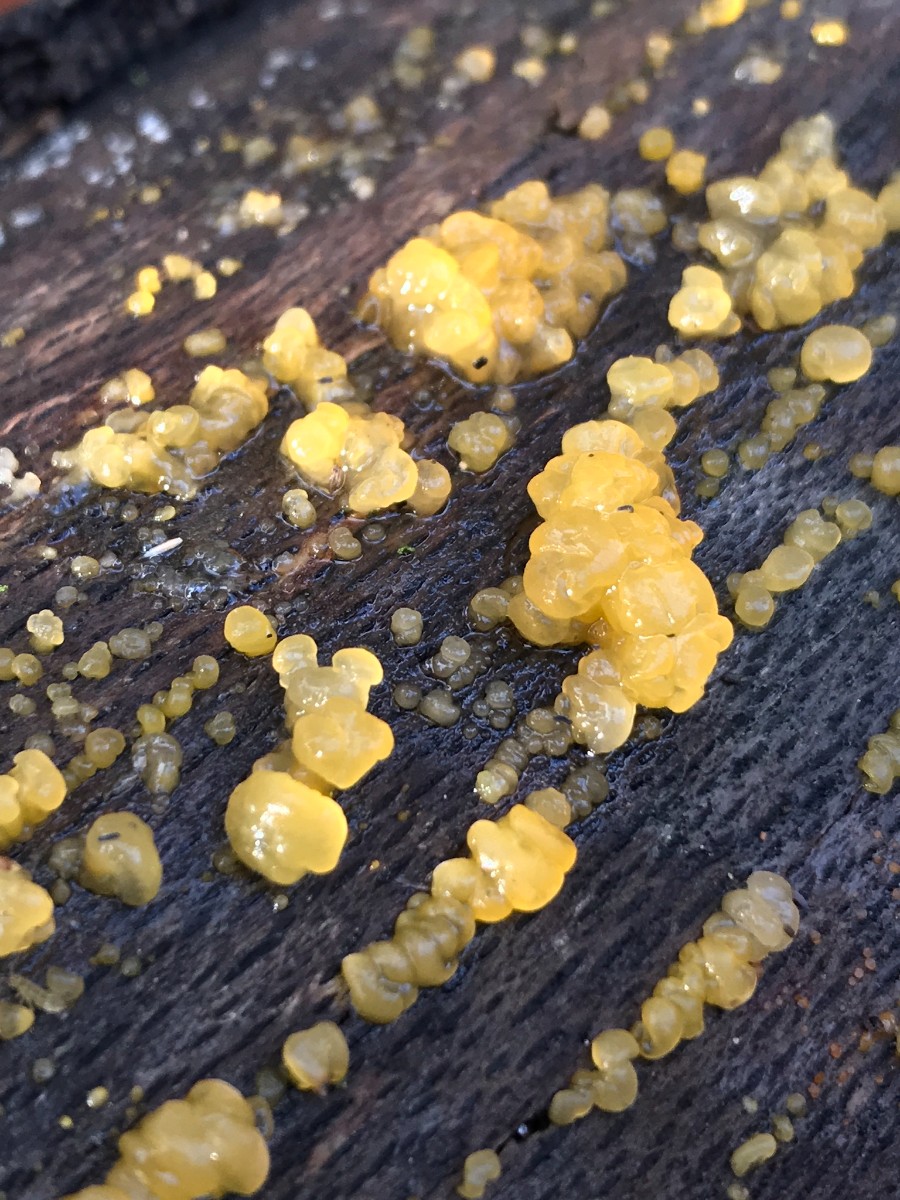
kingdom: Fungi
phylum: Basidiomycota
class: Dacrymycetes
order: Dacrymycetales
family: Dacrymycetaceae
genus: Dacrymyces
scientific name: Dacrymyces lacrymalis
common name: rynket tåresvamp
